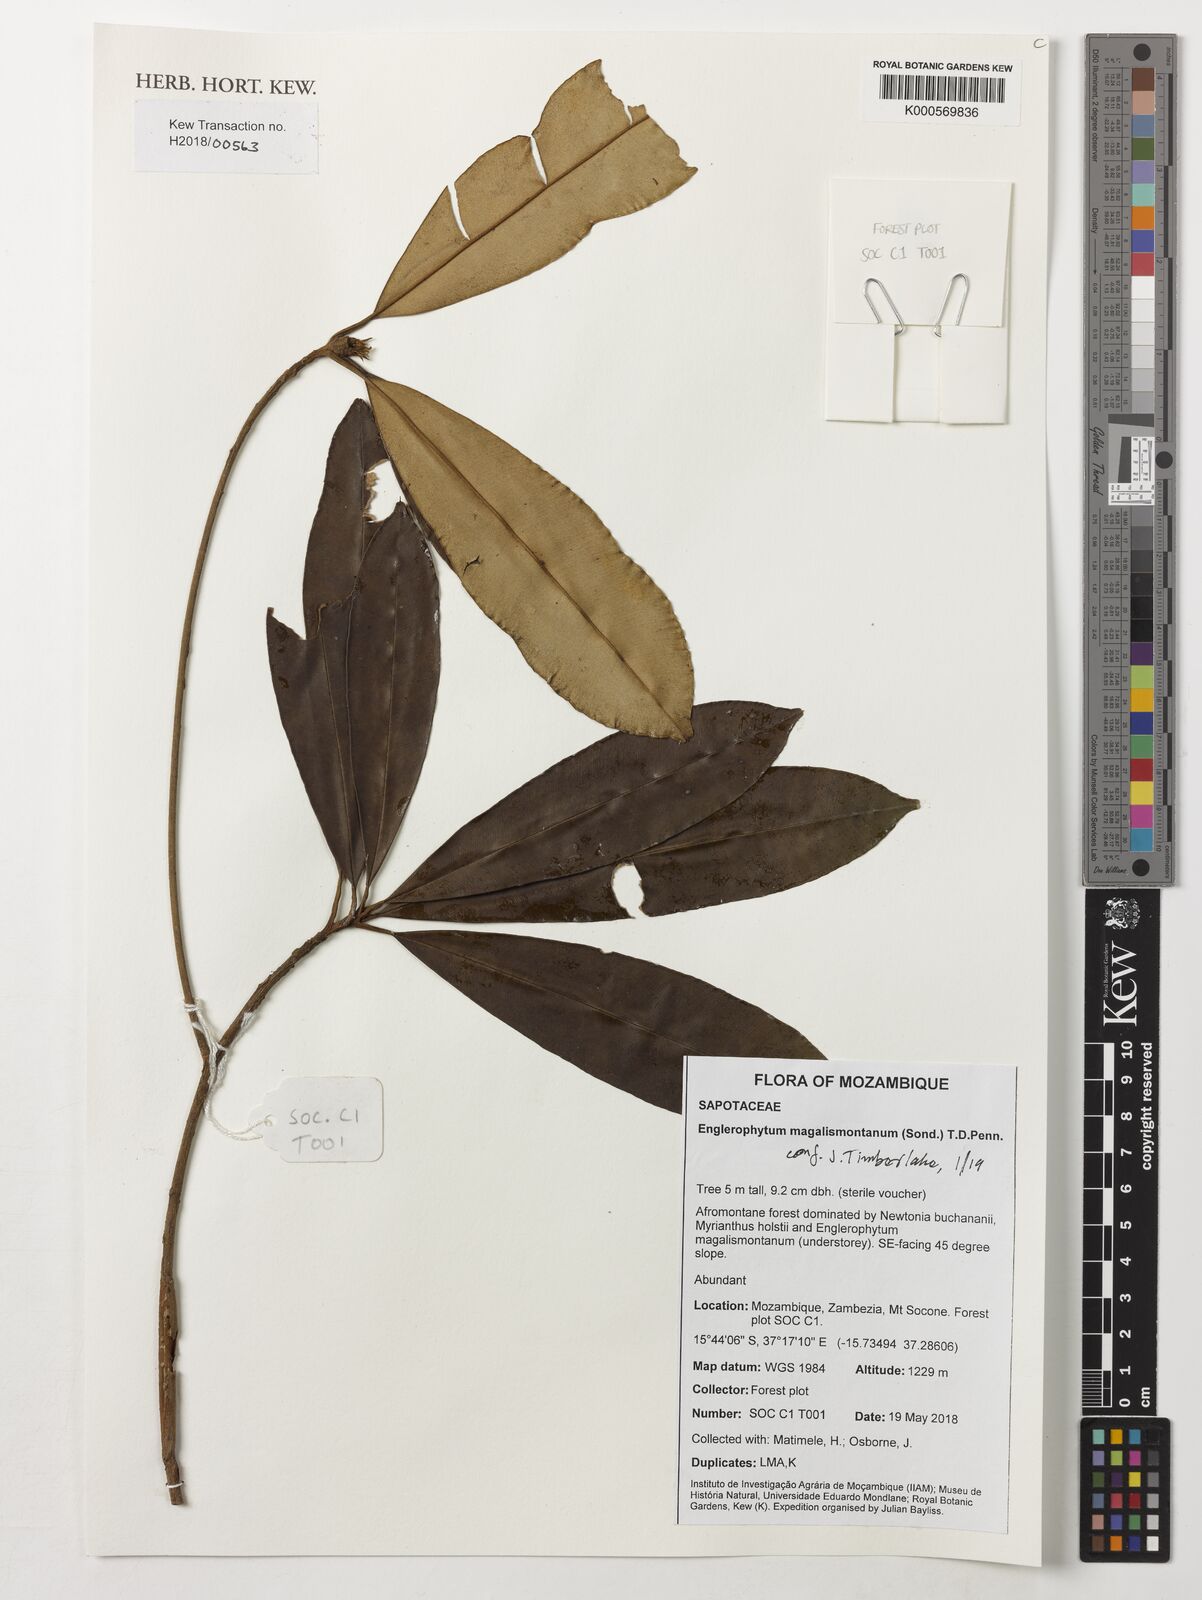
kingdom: Plantae
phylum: Tracheophyta
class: Magnoliopsida
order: Ericales
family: Sapotaceae
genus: Englerophytum
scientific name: Englerophytum magalismontanum
